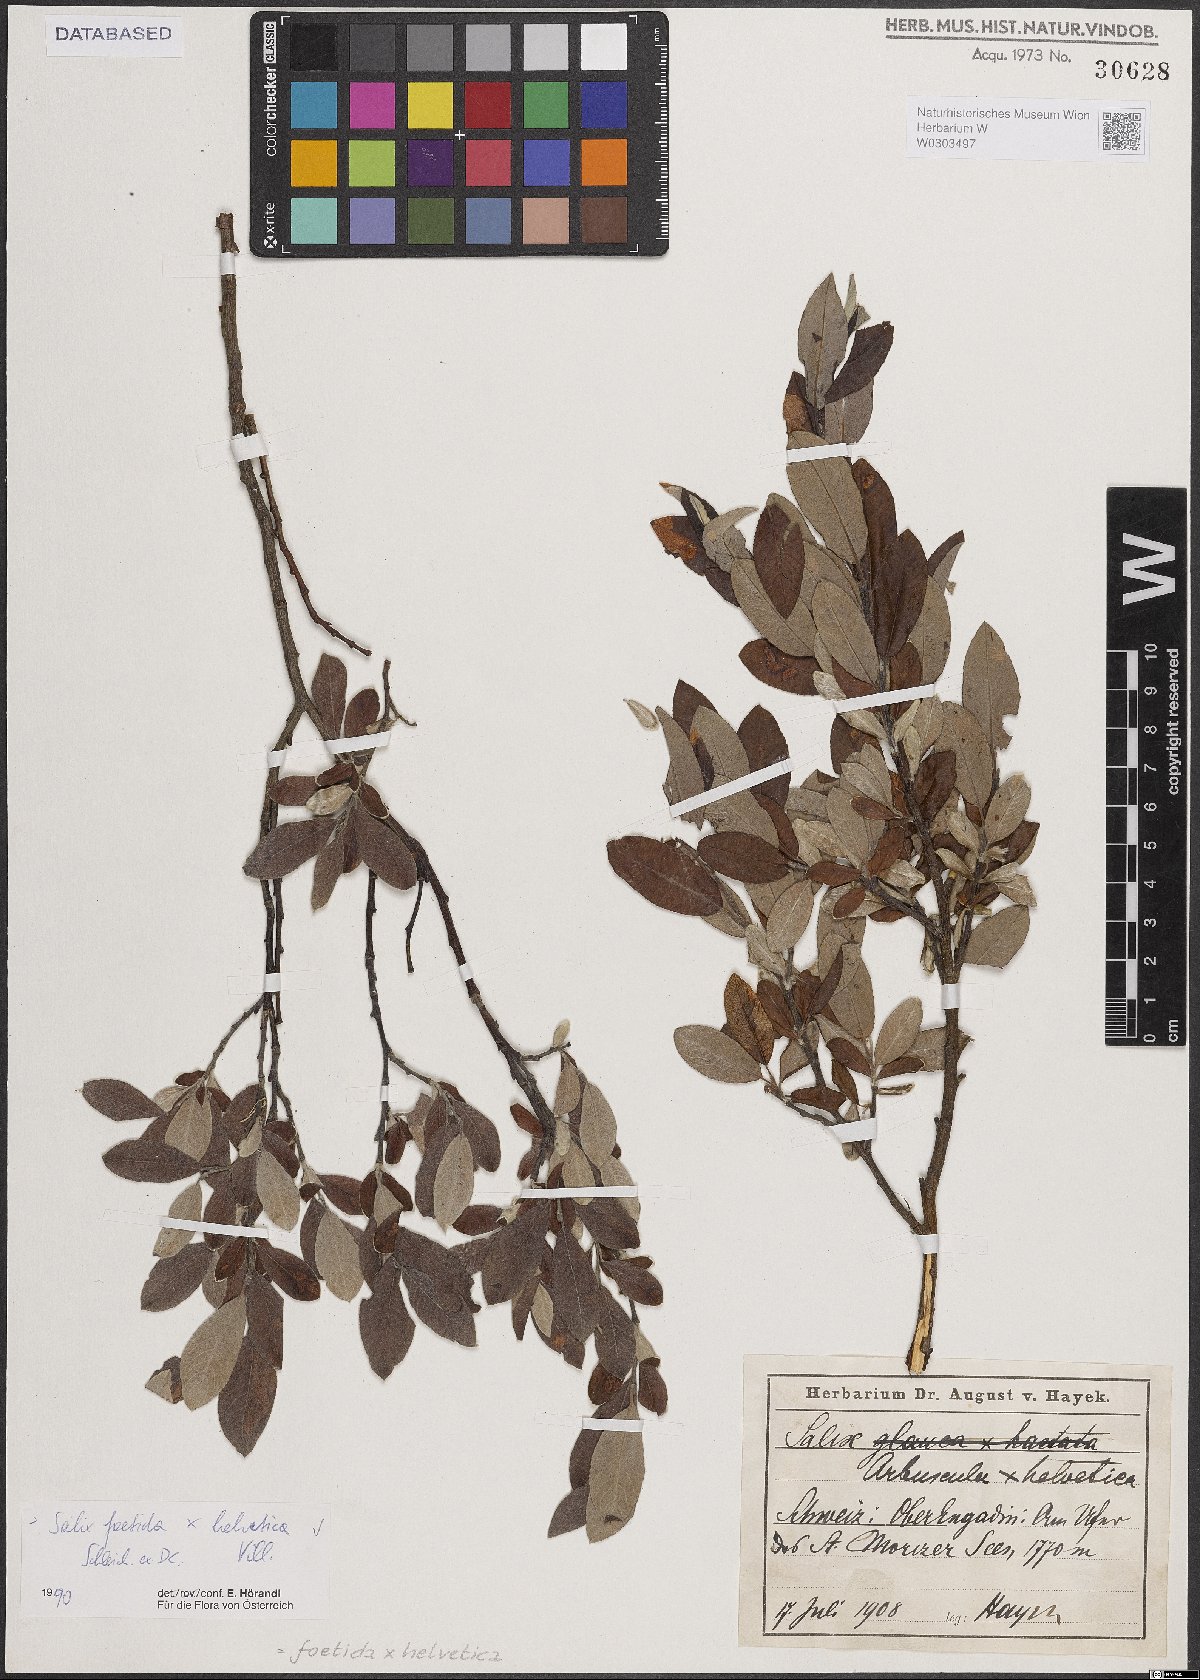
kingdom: Plantae
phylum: Tracheophyta
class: Magnoliopsida
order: Malpighiales
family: Salicaceae
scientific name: Salicaceae
